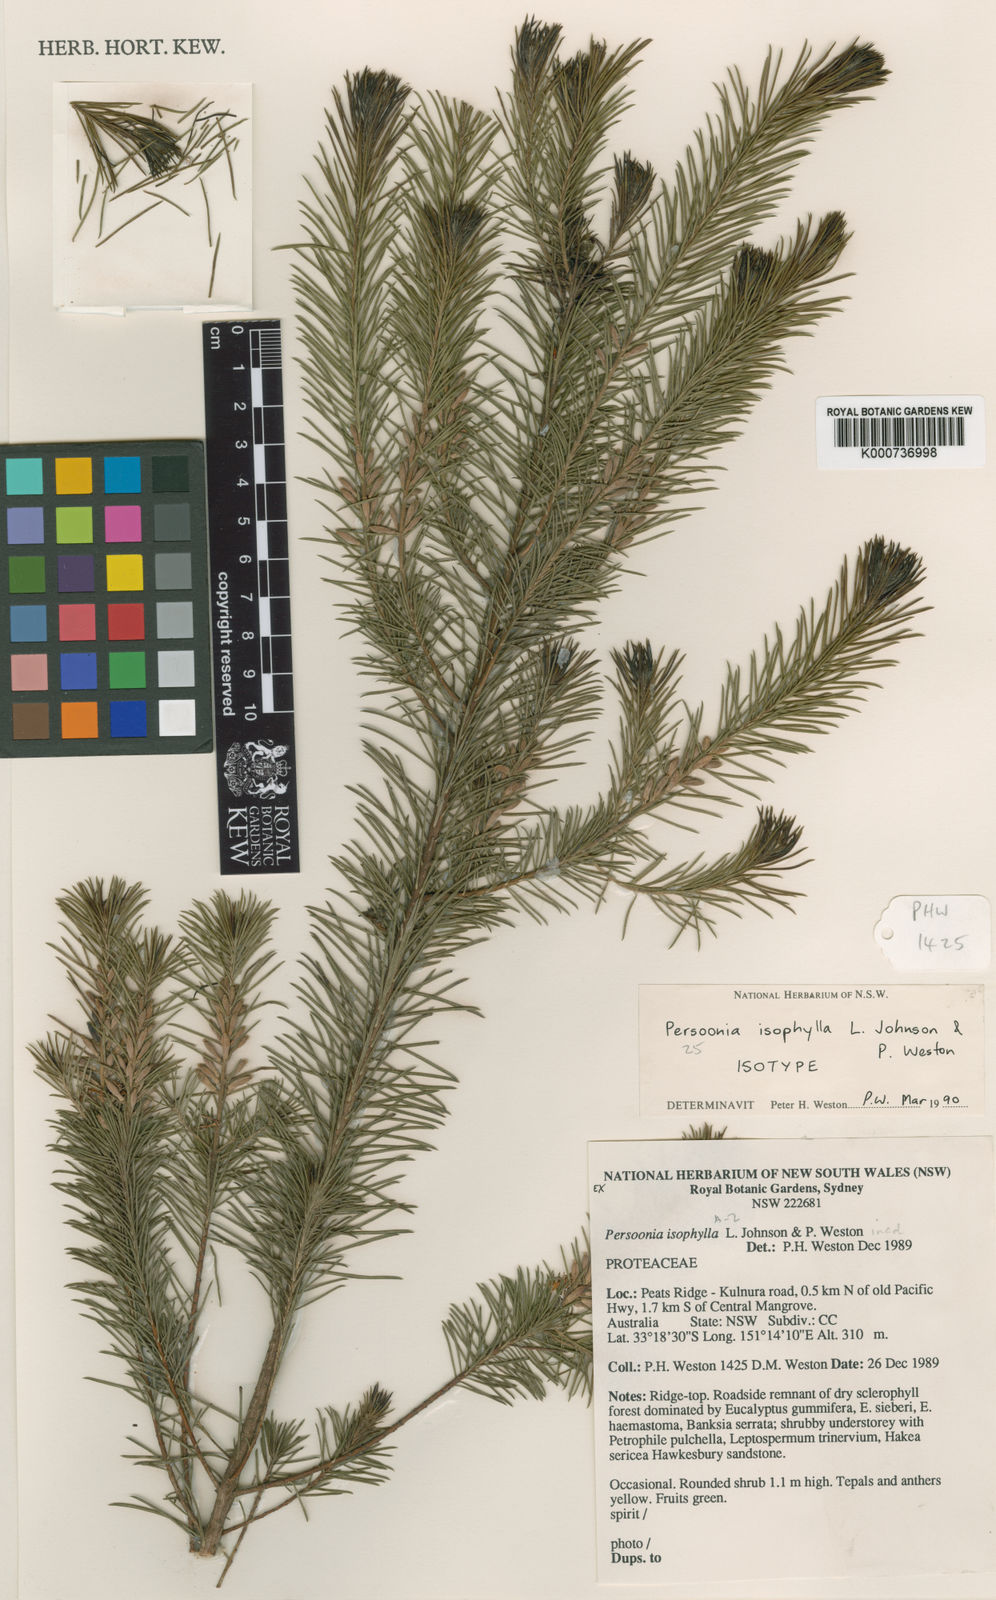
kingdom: Plantae
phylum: Tracheophyta
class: Magnoliopsida
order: Proteales
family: Proteaceae
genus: Persoonia
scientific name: Persoonia isophylla
